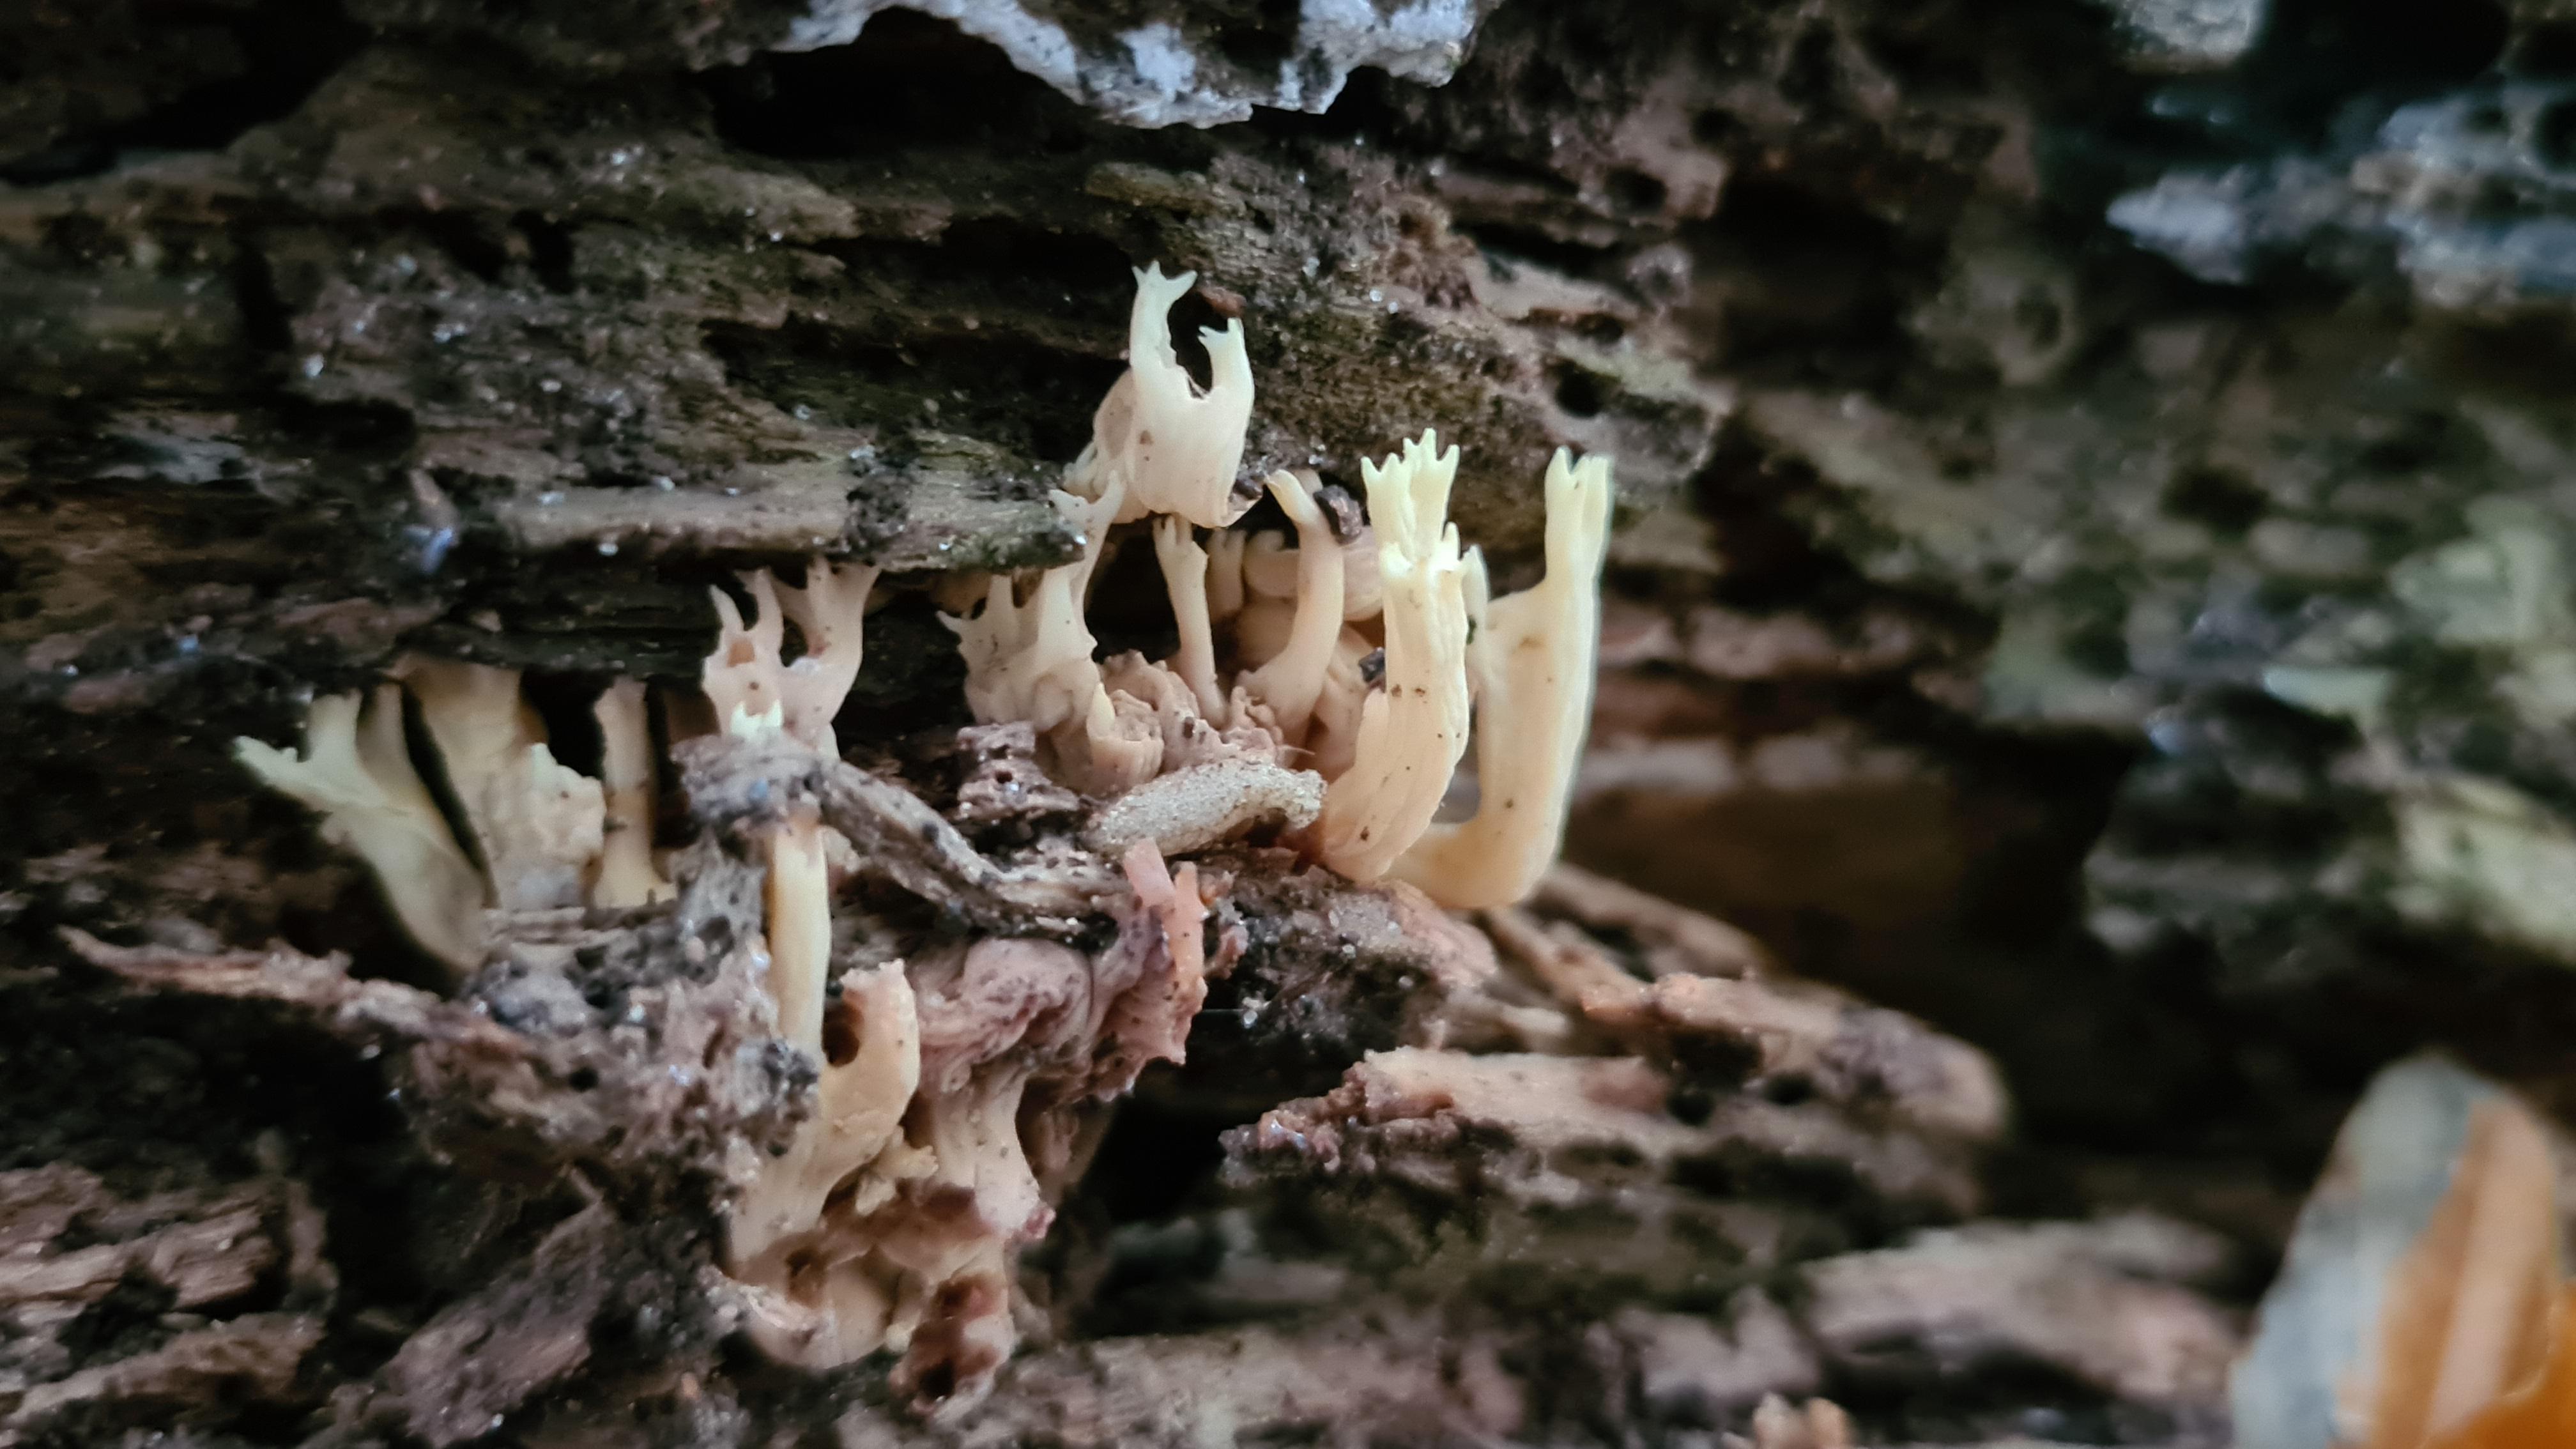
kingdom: Fungi
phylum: Basidiomycota
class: Agaricomycetes
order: Gomphales
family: Gomphaceae
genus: Ramaria
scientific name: Ramaria stricta
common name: rank koralsvamp
